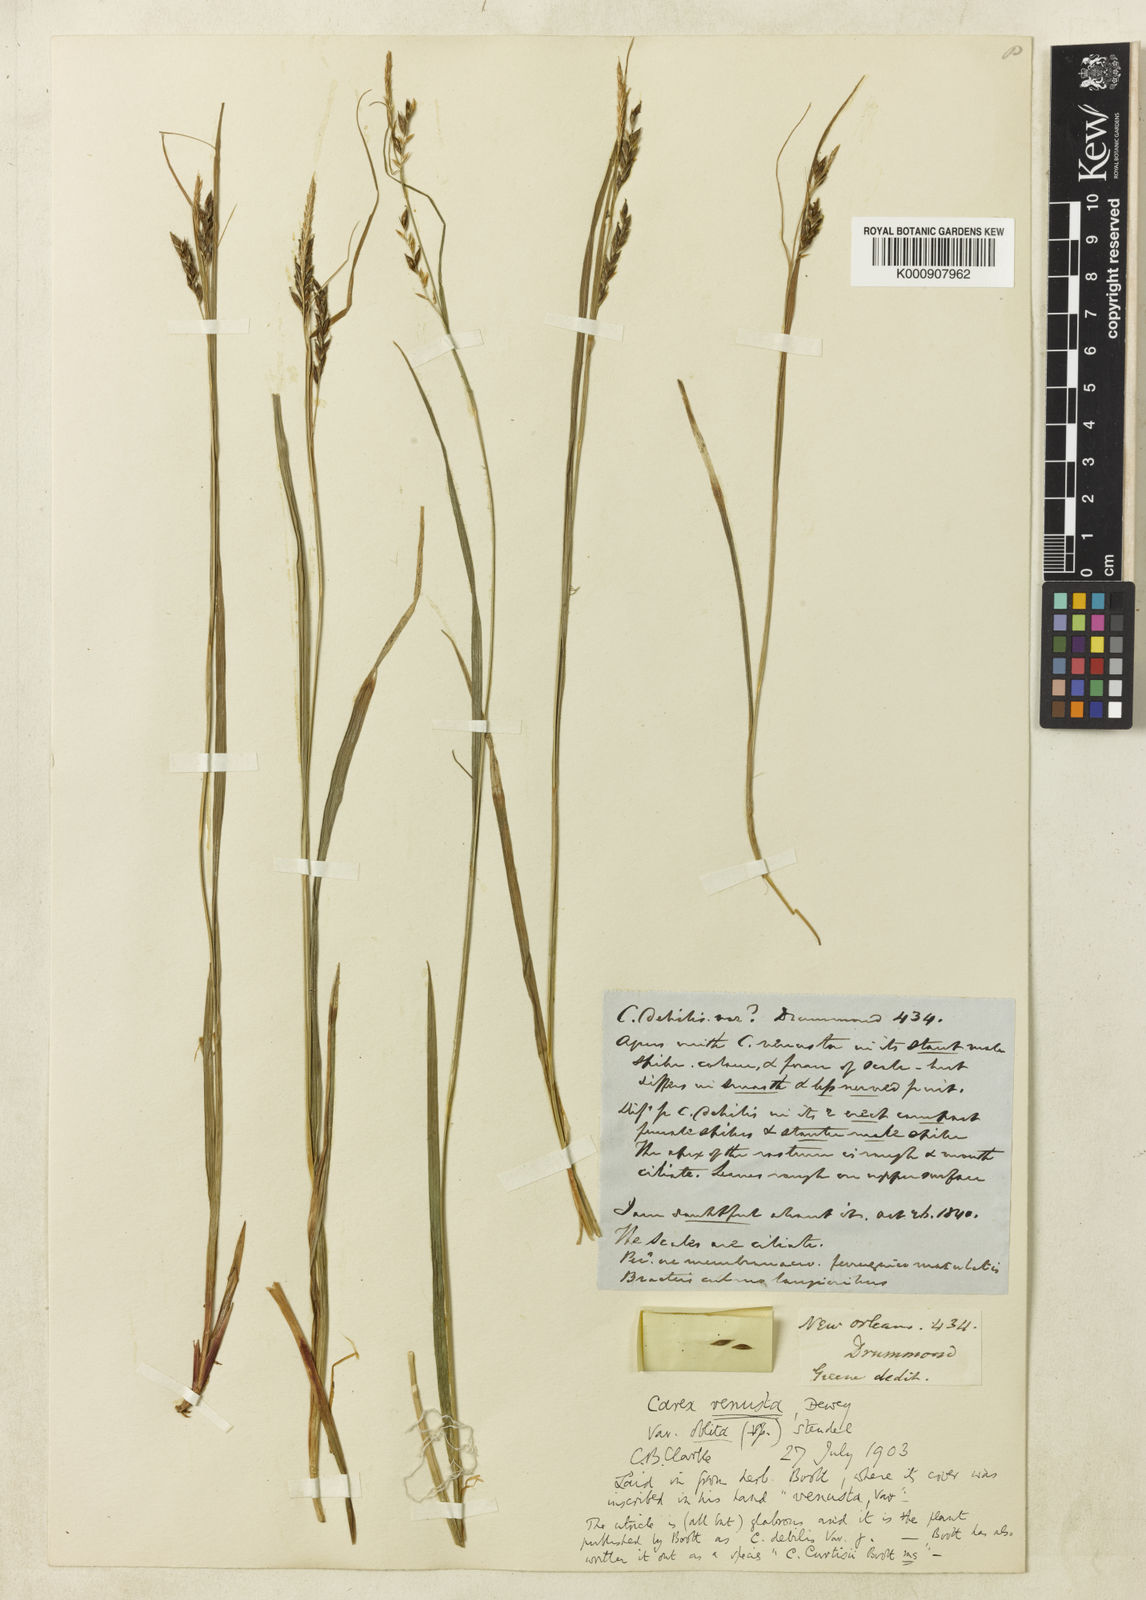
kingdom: Plantae
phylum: Tracheophyta
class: Liliopsida
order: Poales
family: Cyperaceae
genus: Carex
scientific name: Carex venusta
